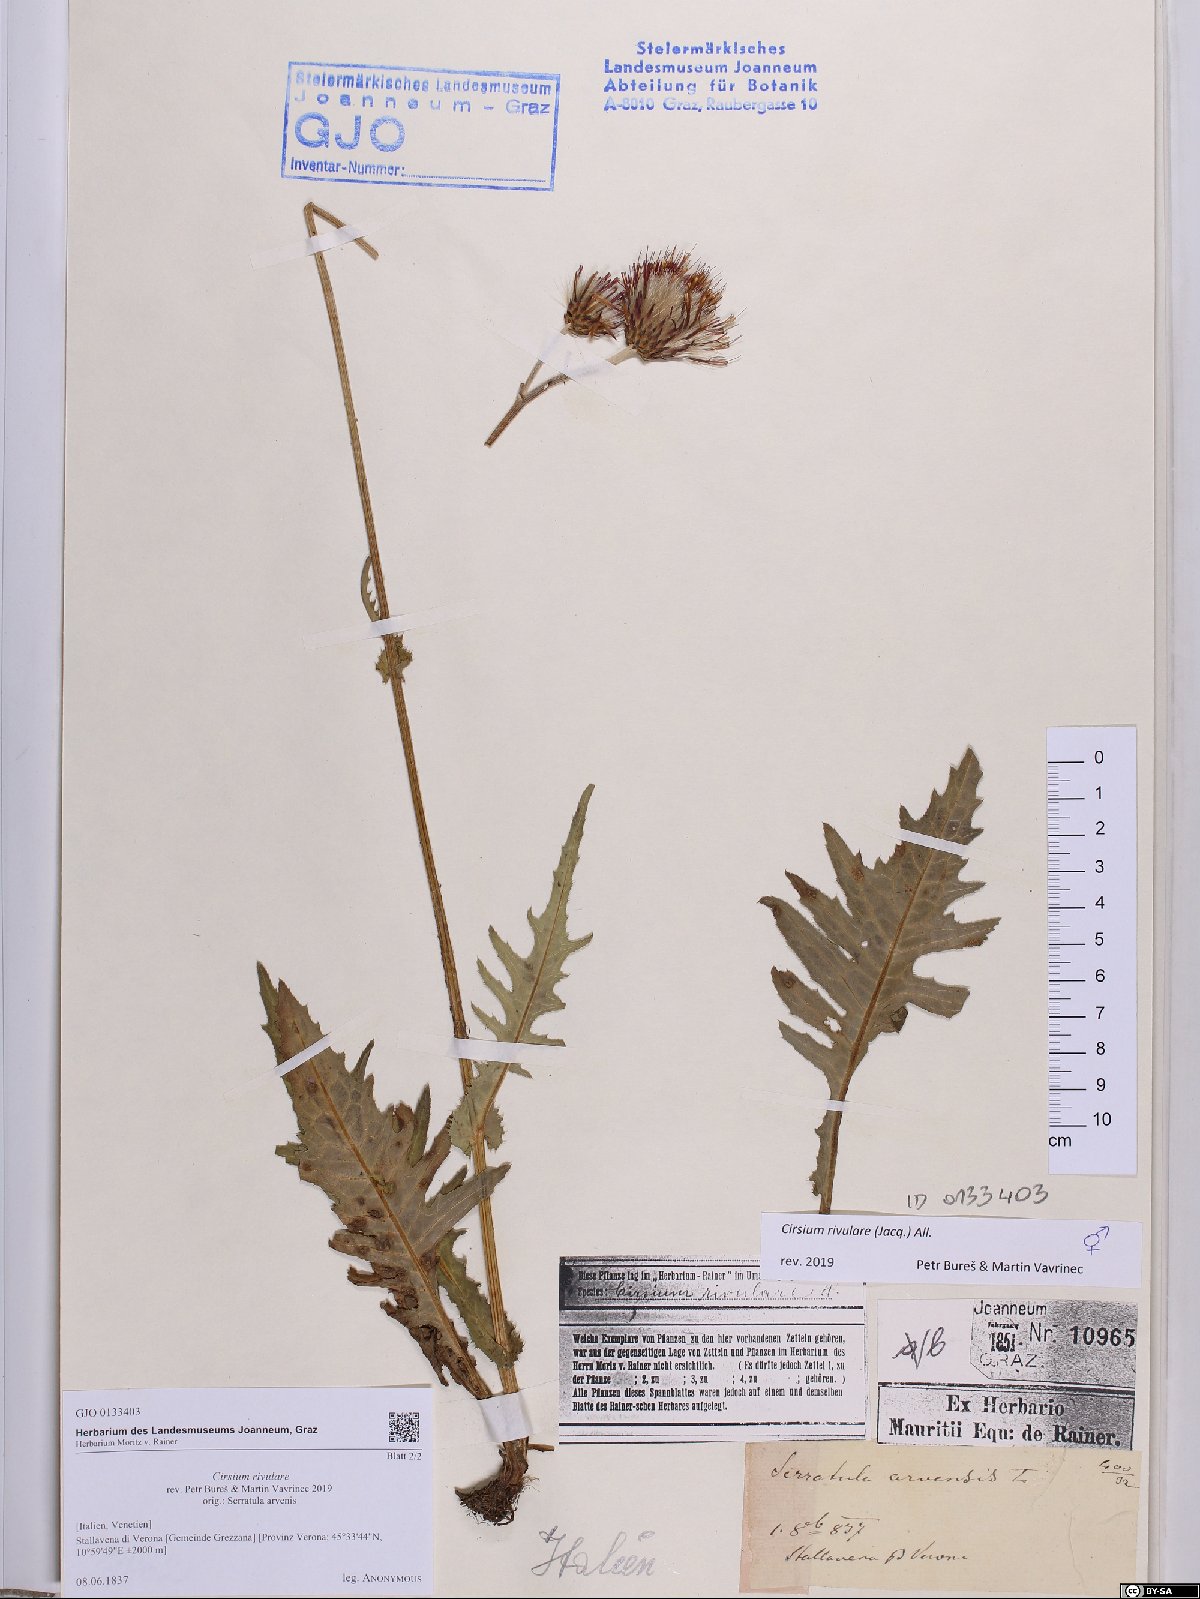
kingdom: Plantae
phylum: Tracheophyta
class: Magnoliopsida
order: Asterales
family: Asteraceae
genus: Cirsium
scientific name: Cirsium rivulare
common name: Brook thistle
